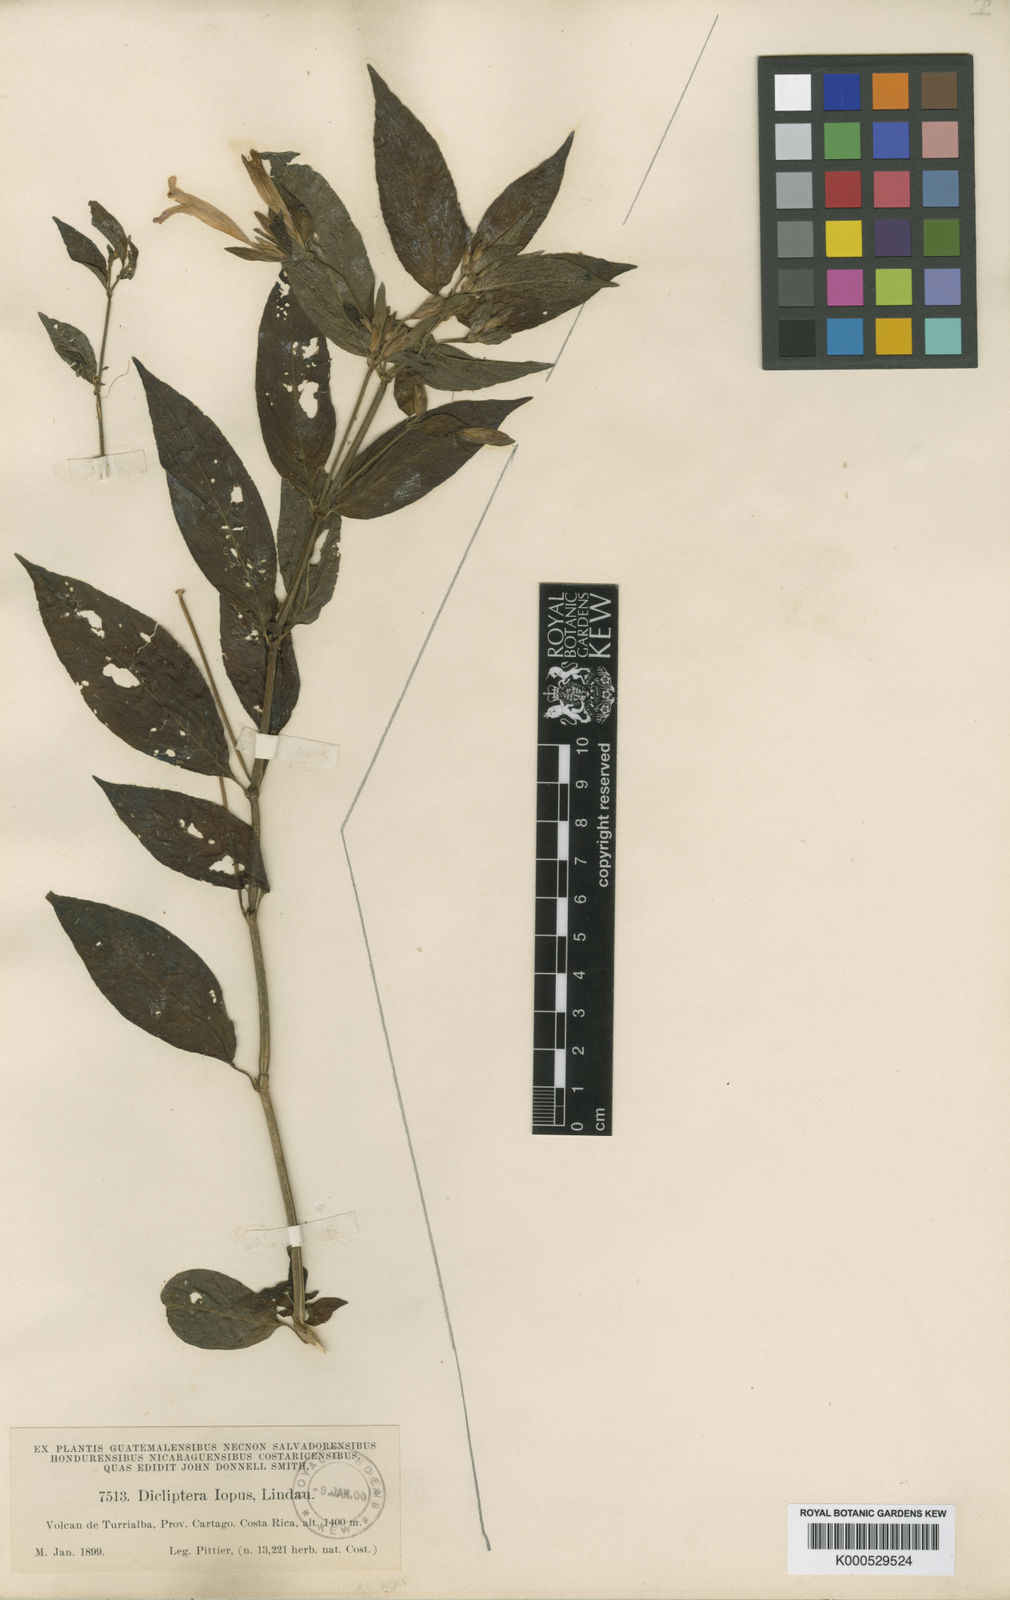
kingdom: Plantae
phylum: Tracheophyta
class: Magnoliopsida
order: Lamiales
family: Acanthaceae
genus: Dicliptera
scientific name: Dicliptera iopus
